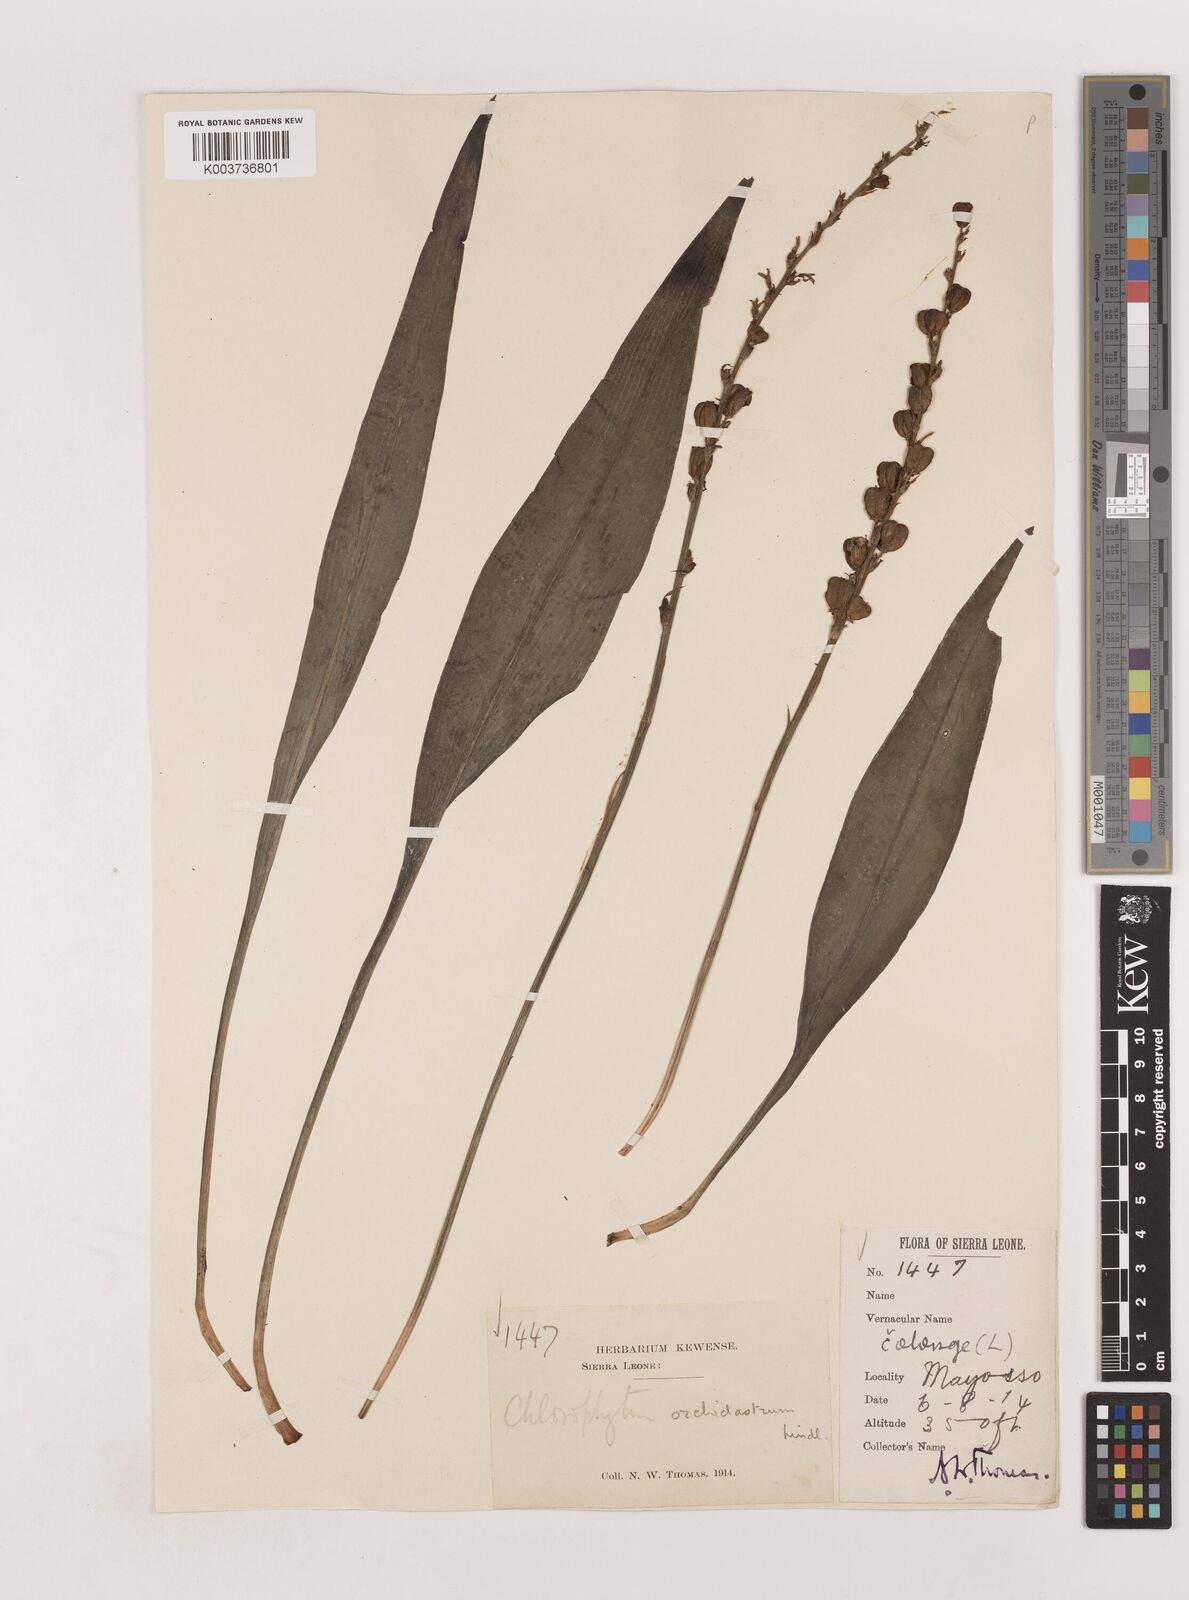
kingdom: Plantae
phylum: Tracheophyta
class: Liliopsida
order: Asparagales
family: Asparagaceae
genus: Chlorophytum
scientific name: Chlorophytum inornatum
